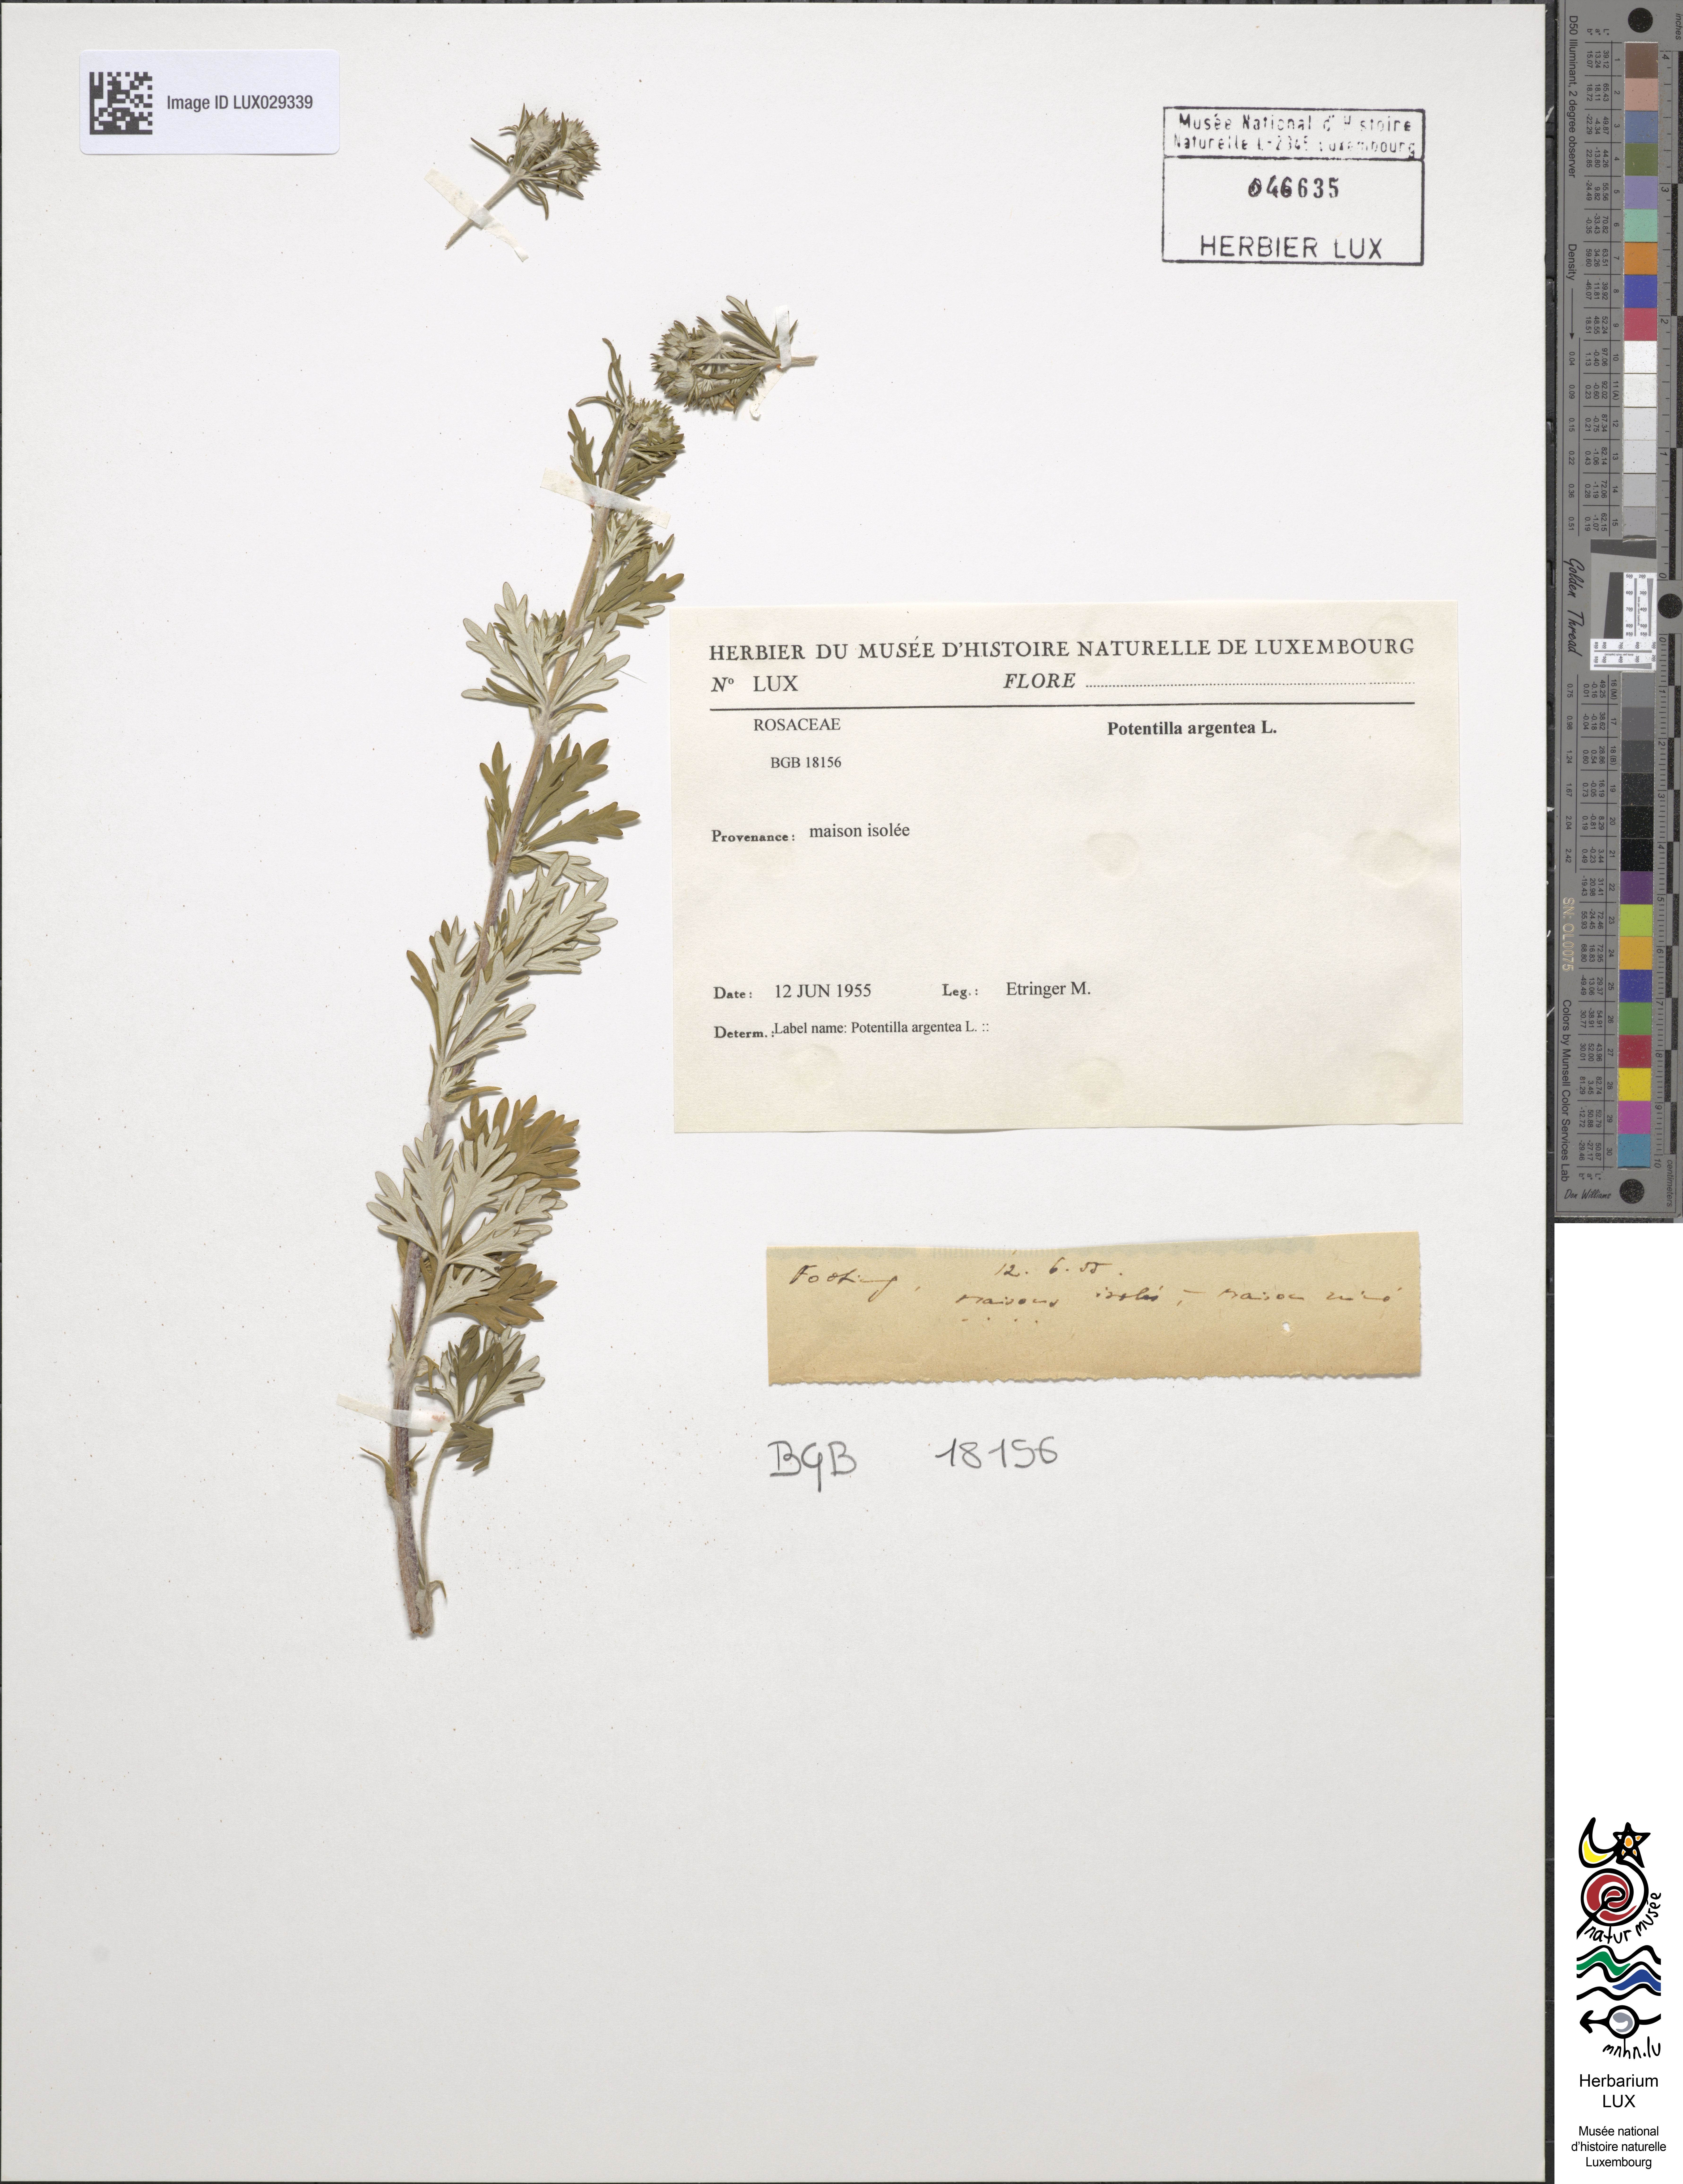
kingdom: Plantae
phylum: Tracheophyta
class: Magnoliopsida
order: Rosales
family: Rosaceae
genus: Potentilla
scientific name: Potentilla argentea
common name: Hoary cinquefoil
